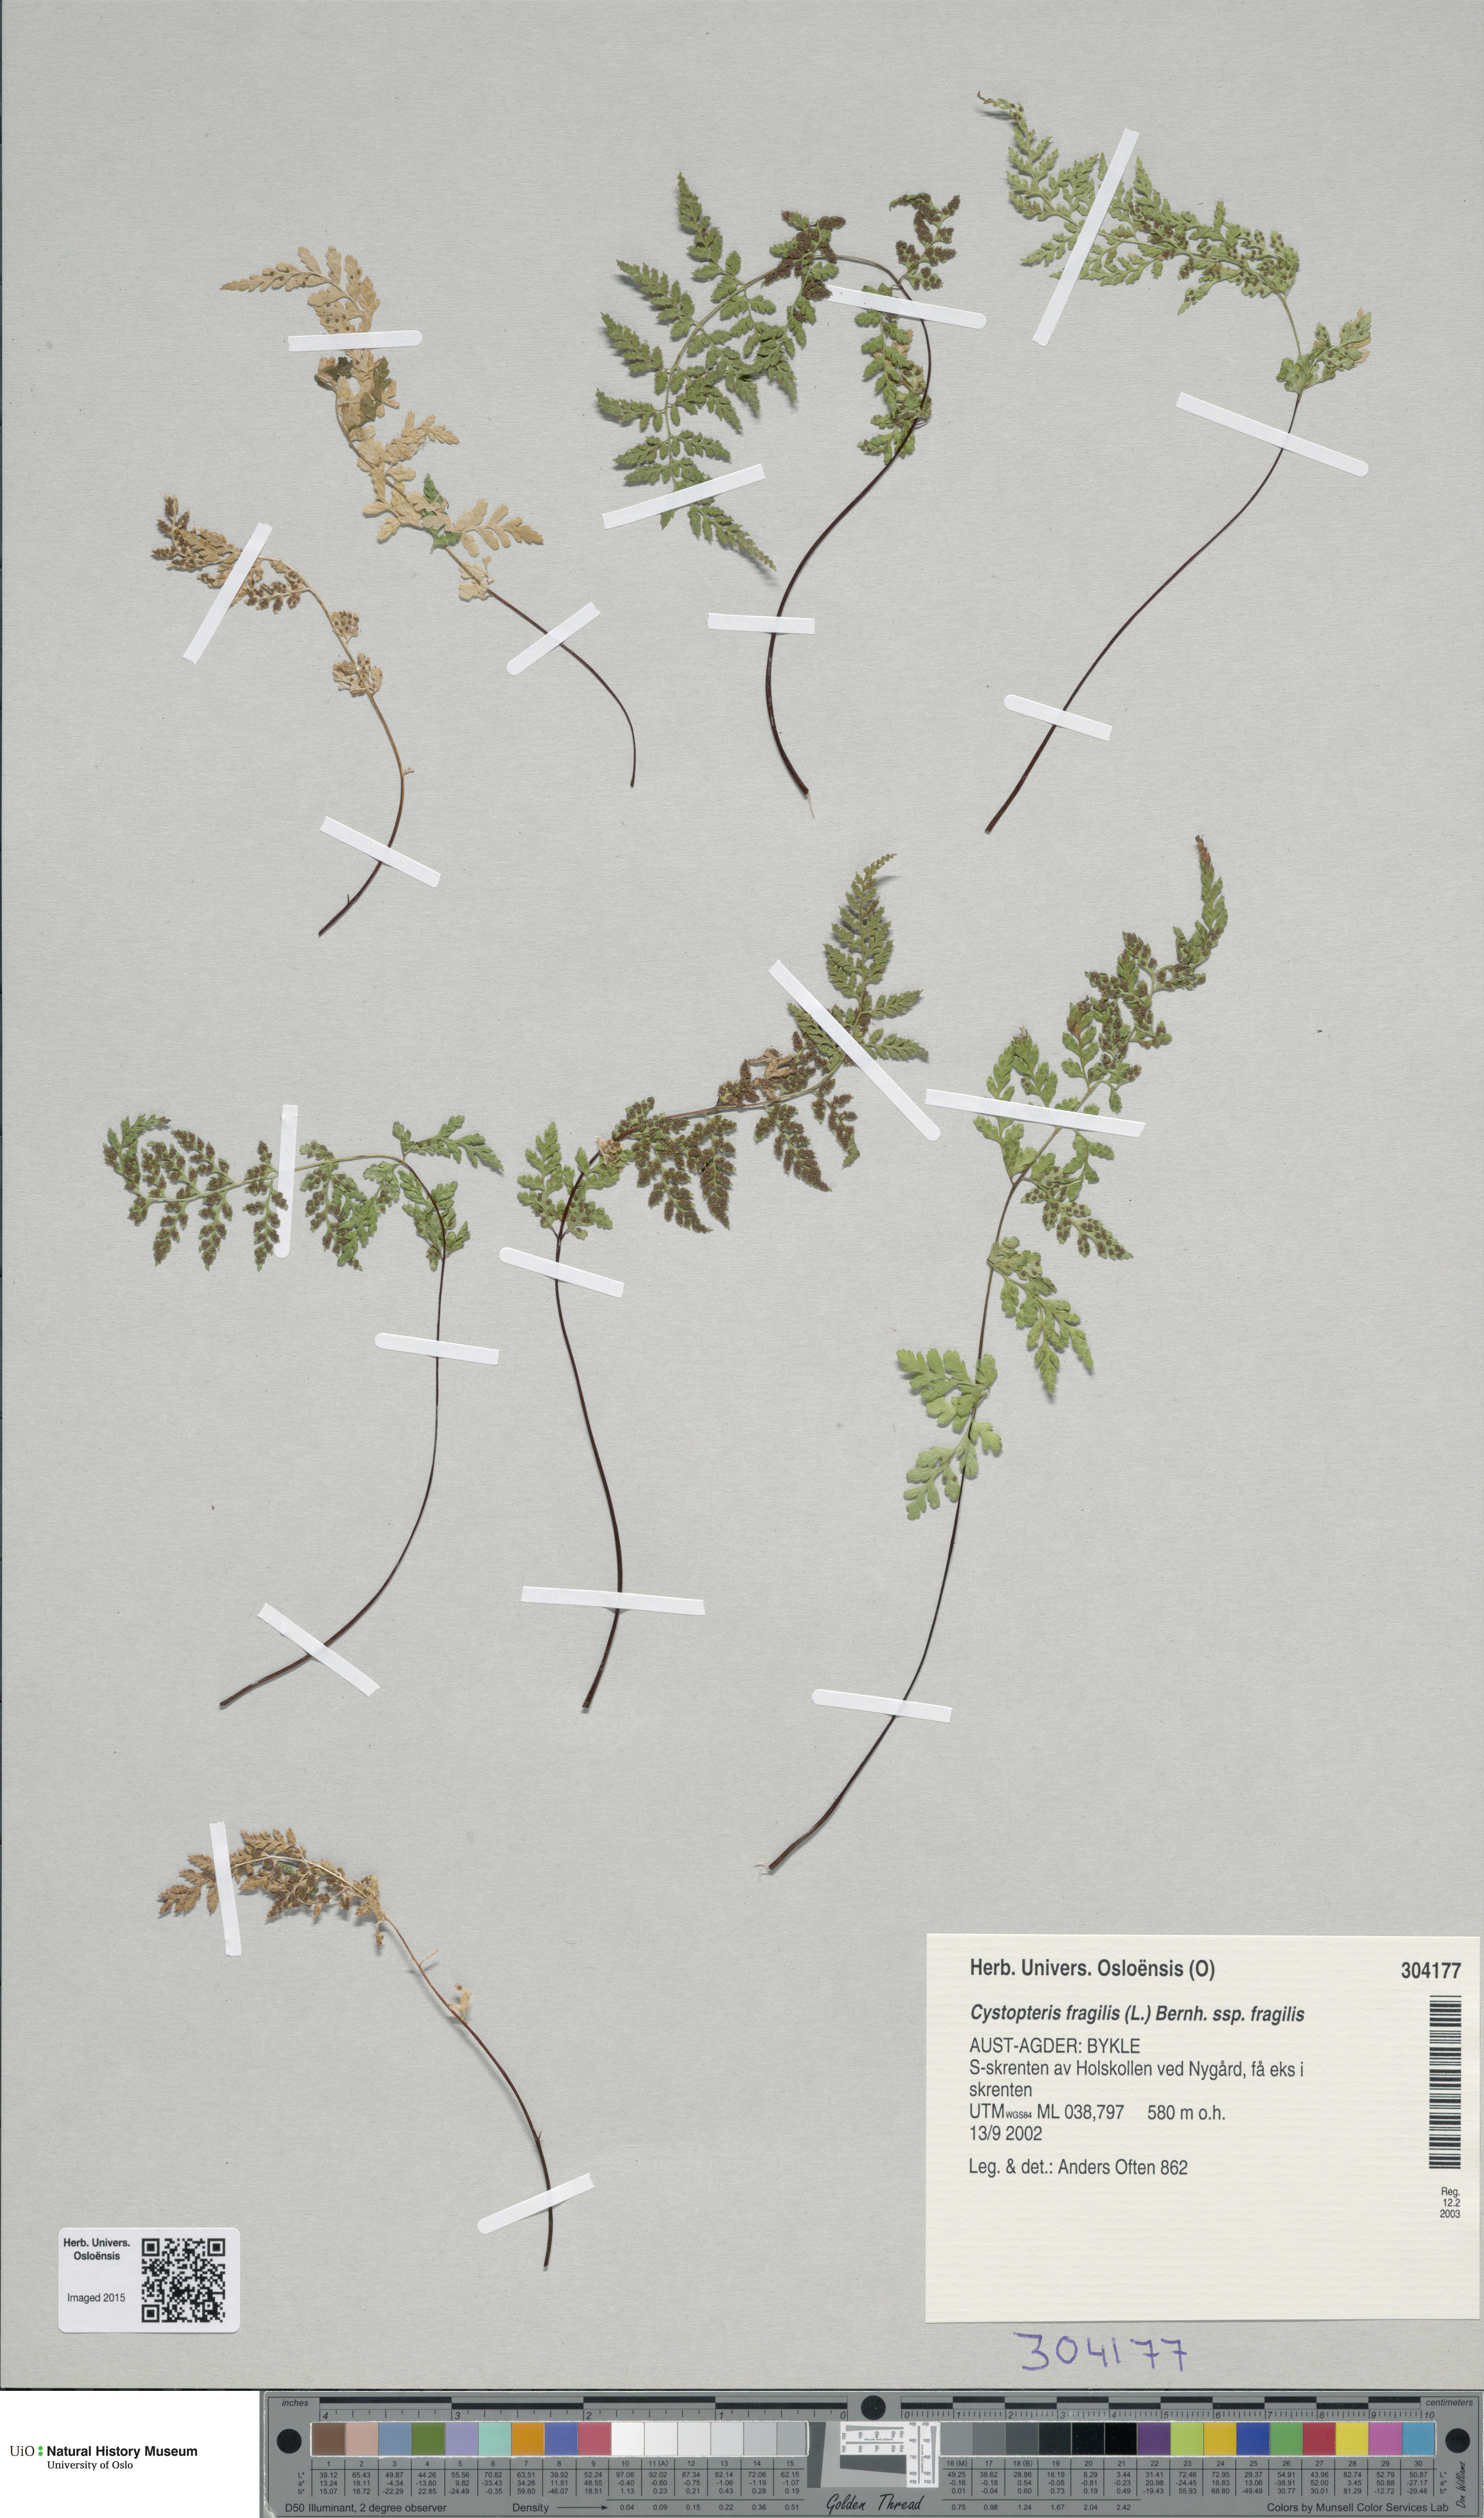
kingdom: Plantae
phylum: Tracheophyta
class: Polypodiopsida
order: Polypodiales
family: Cystopteridaceae
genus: Cystopteris
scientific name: Cystopteris fragilis
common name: Brittle bladder fern
